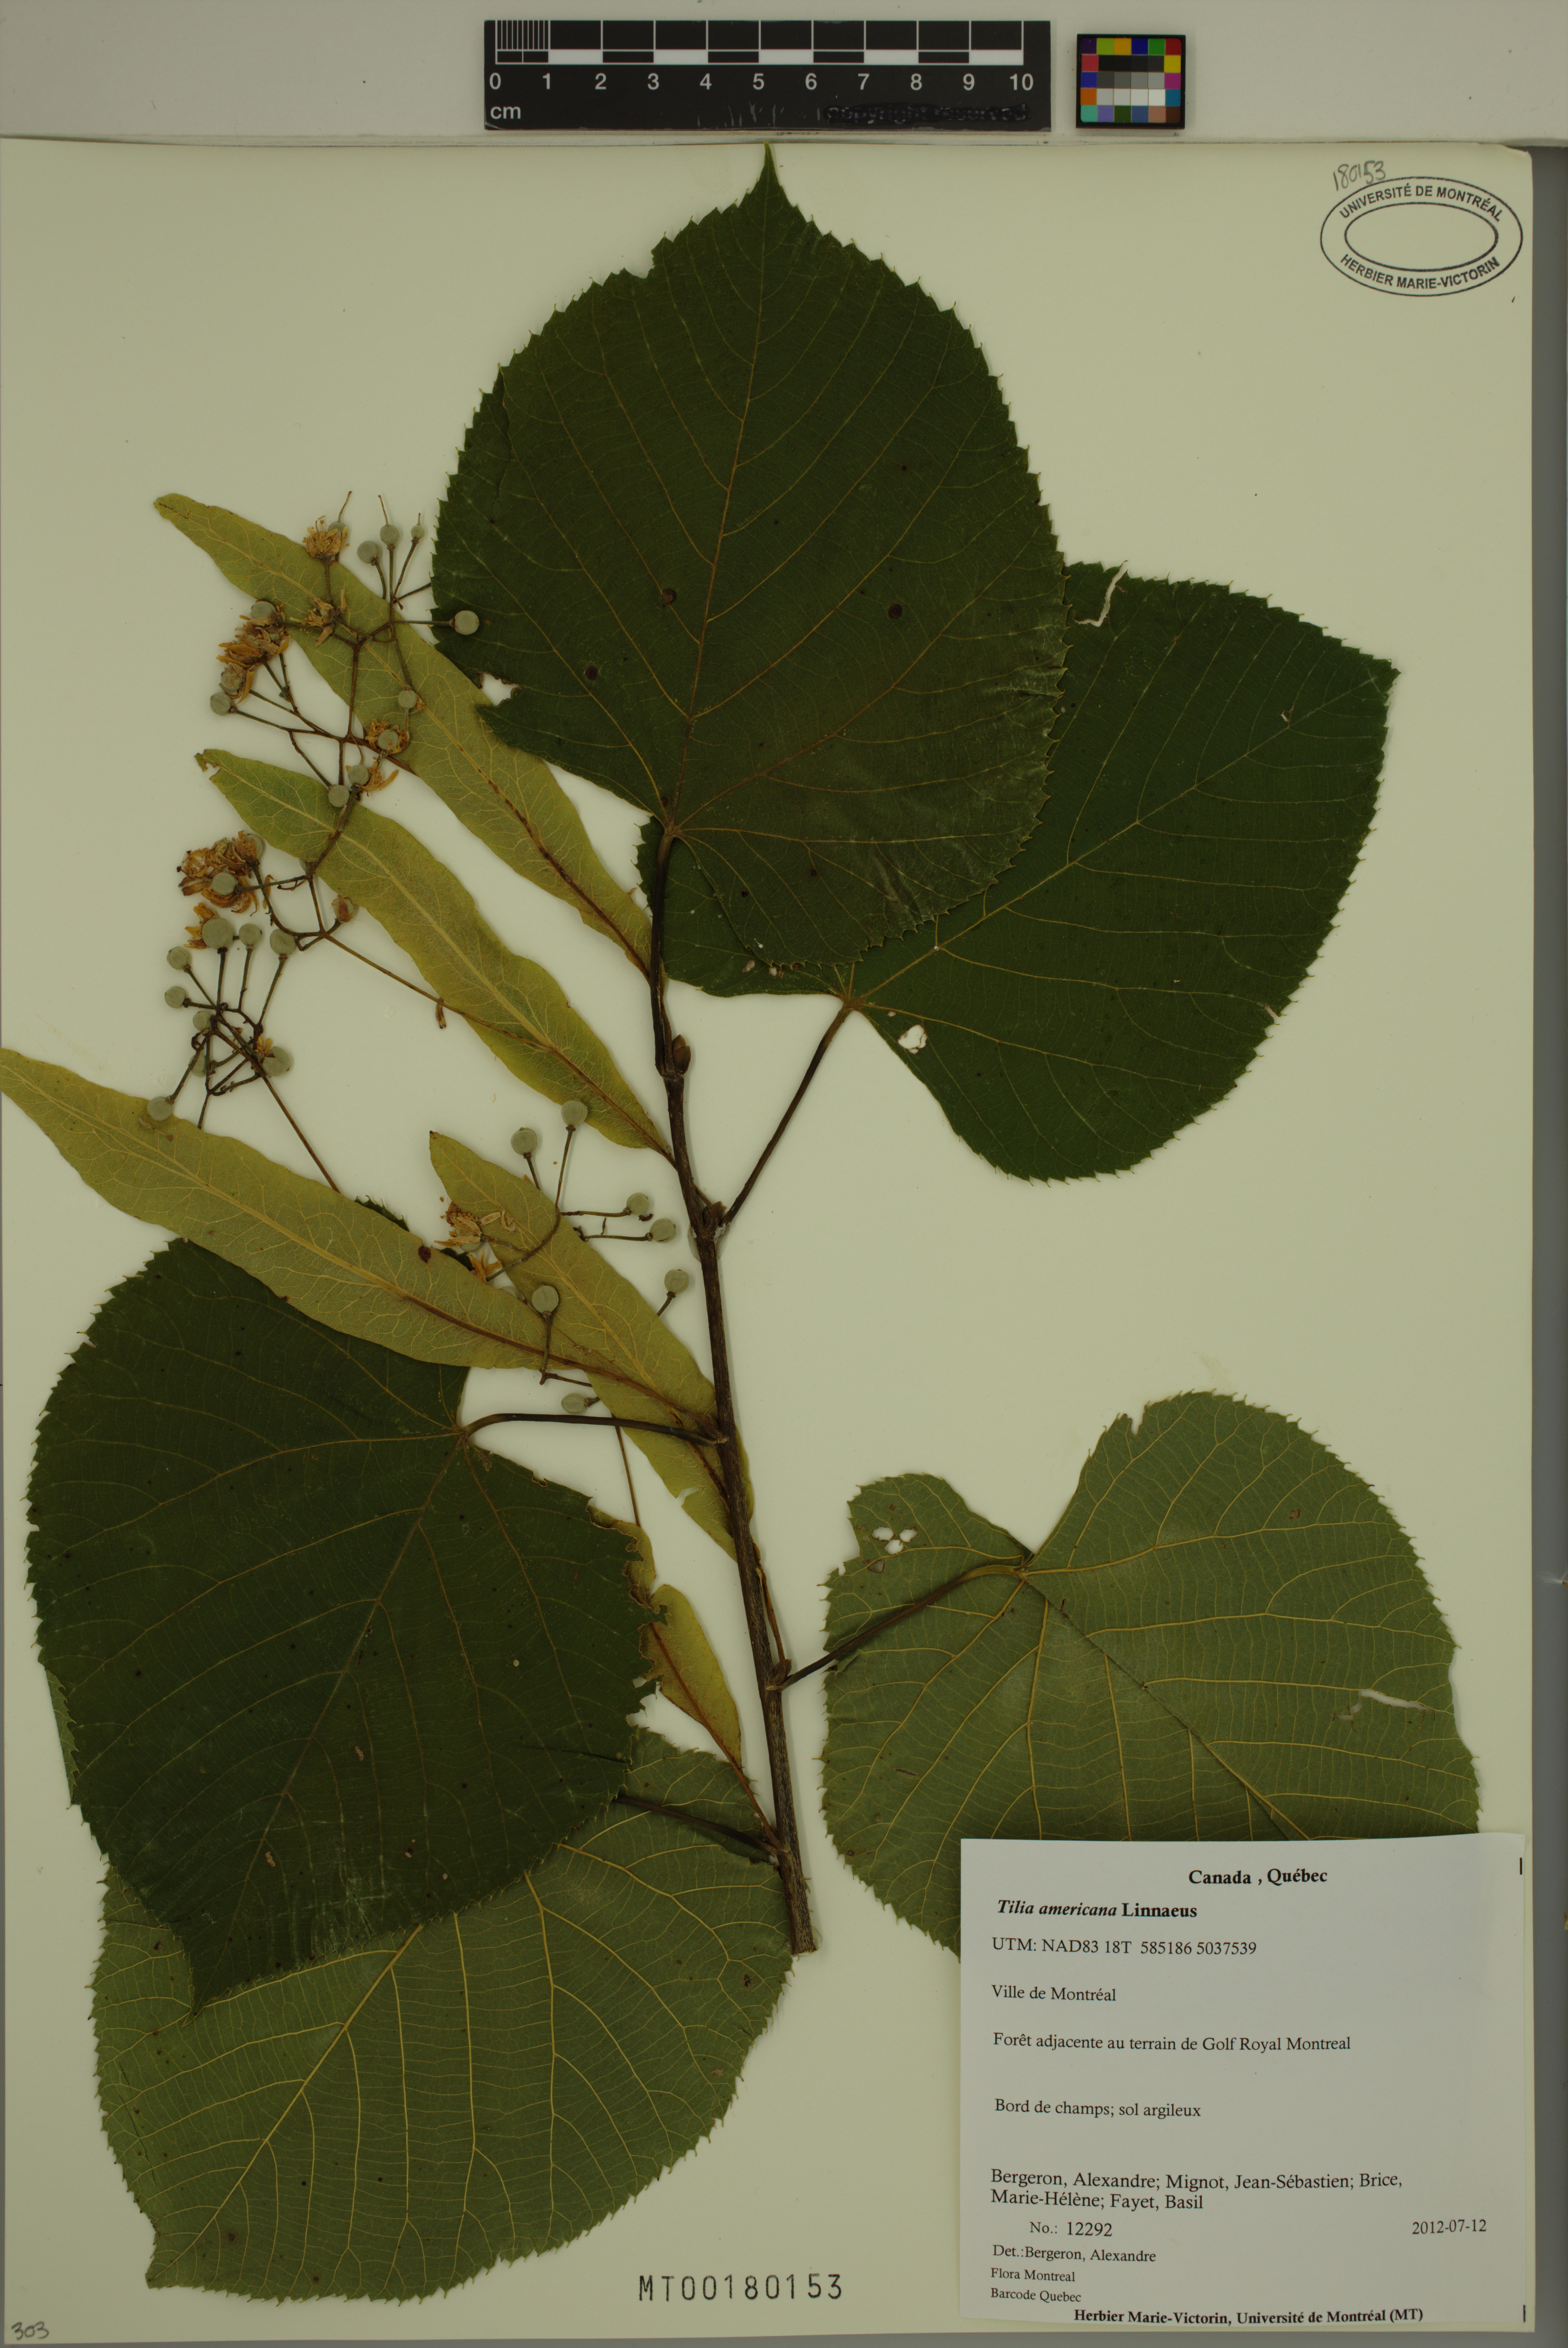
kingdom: Plantae
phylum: Tracheophyta
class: Magnoliopsida
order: Malvales
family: Malvaceae
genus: Tilia
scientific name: Tilia americana
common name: Basswood
